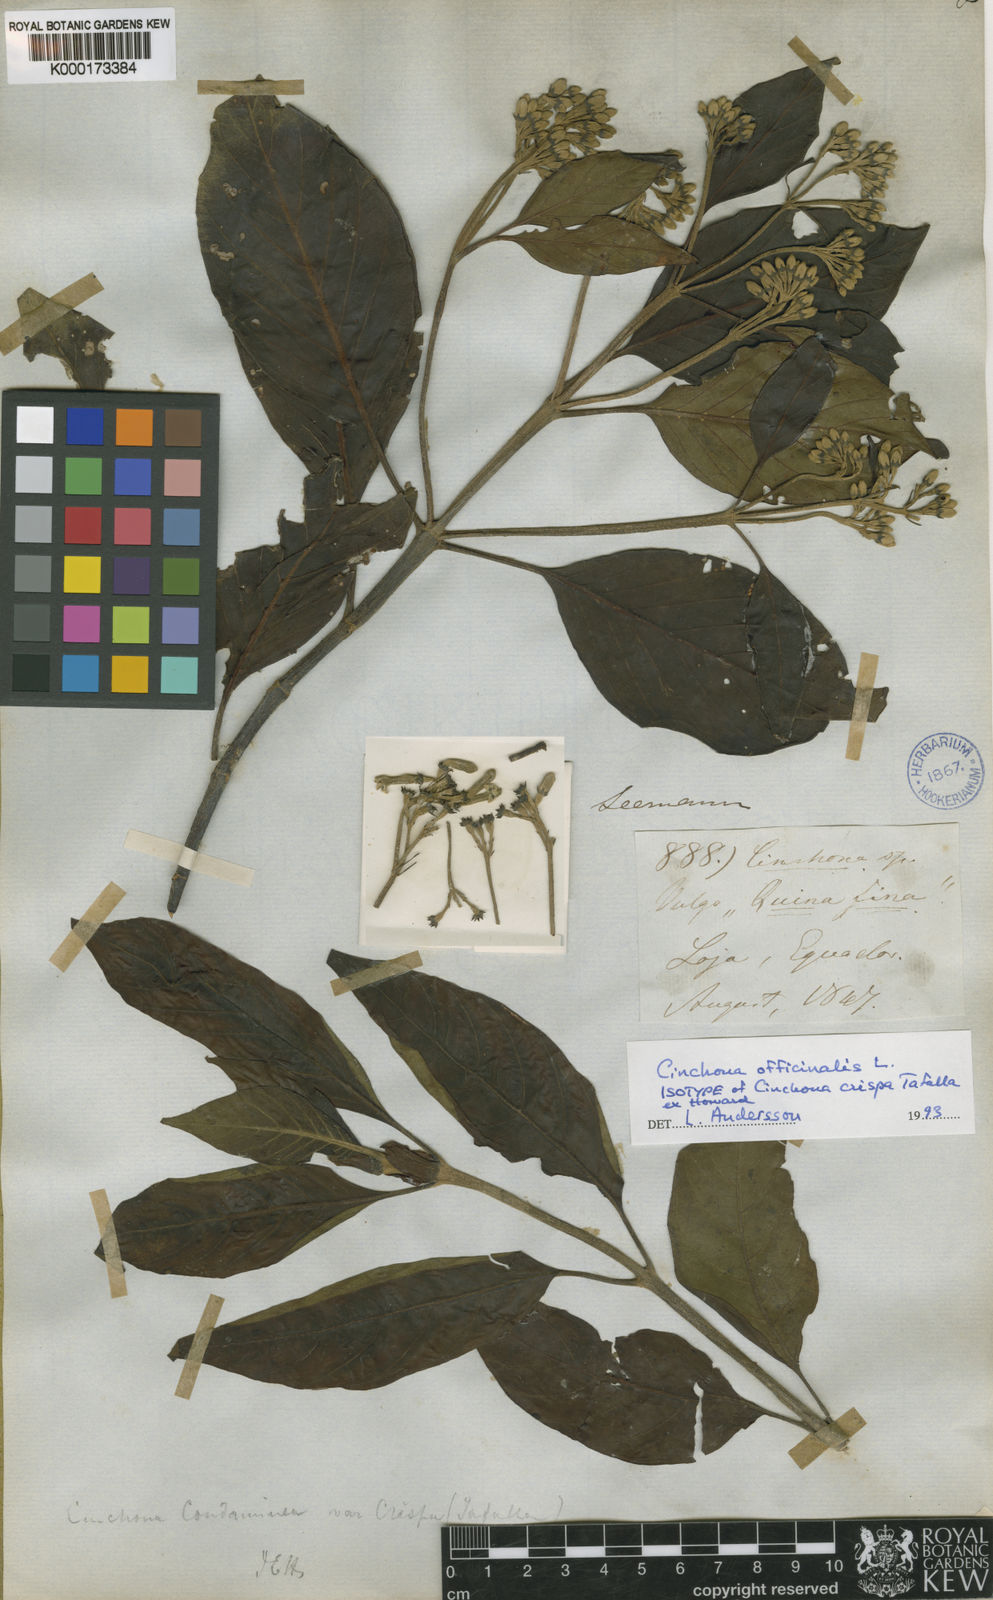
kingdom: Plantae
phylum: Tracheophyta
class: Magnoliopsida
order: Gentianales
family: Rubiaceae
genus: Cinchona
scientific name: Cinchona officinalis
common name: Lojabark
